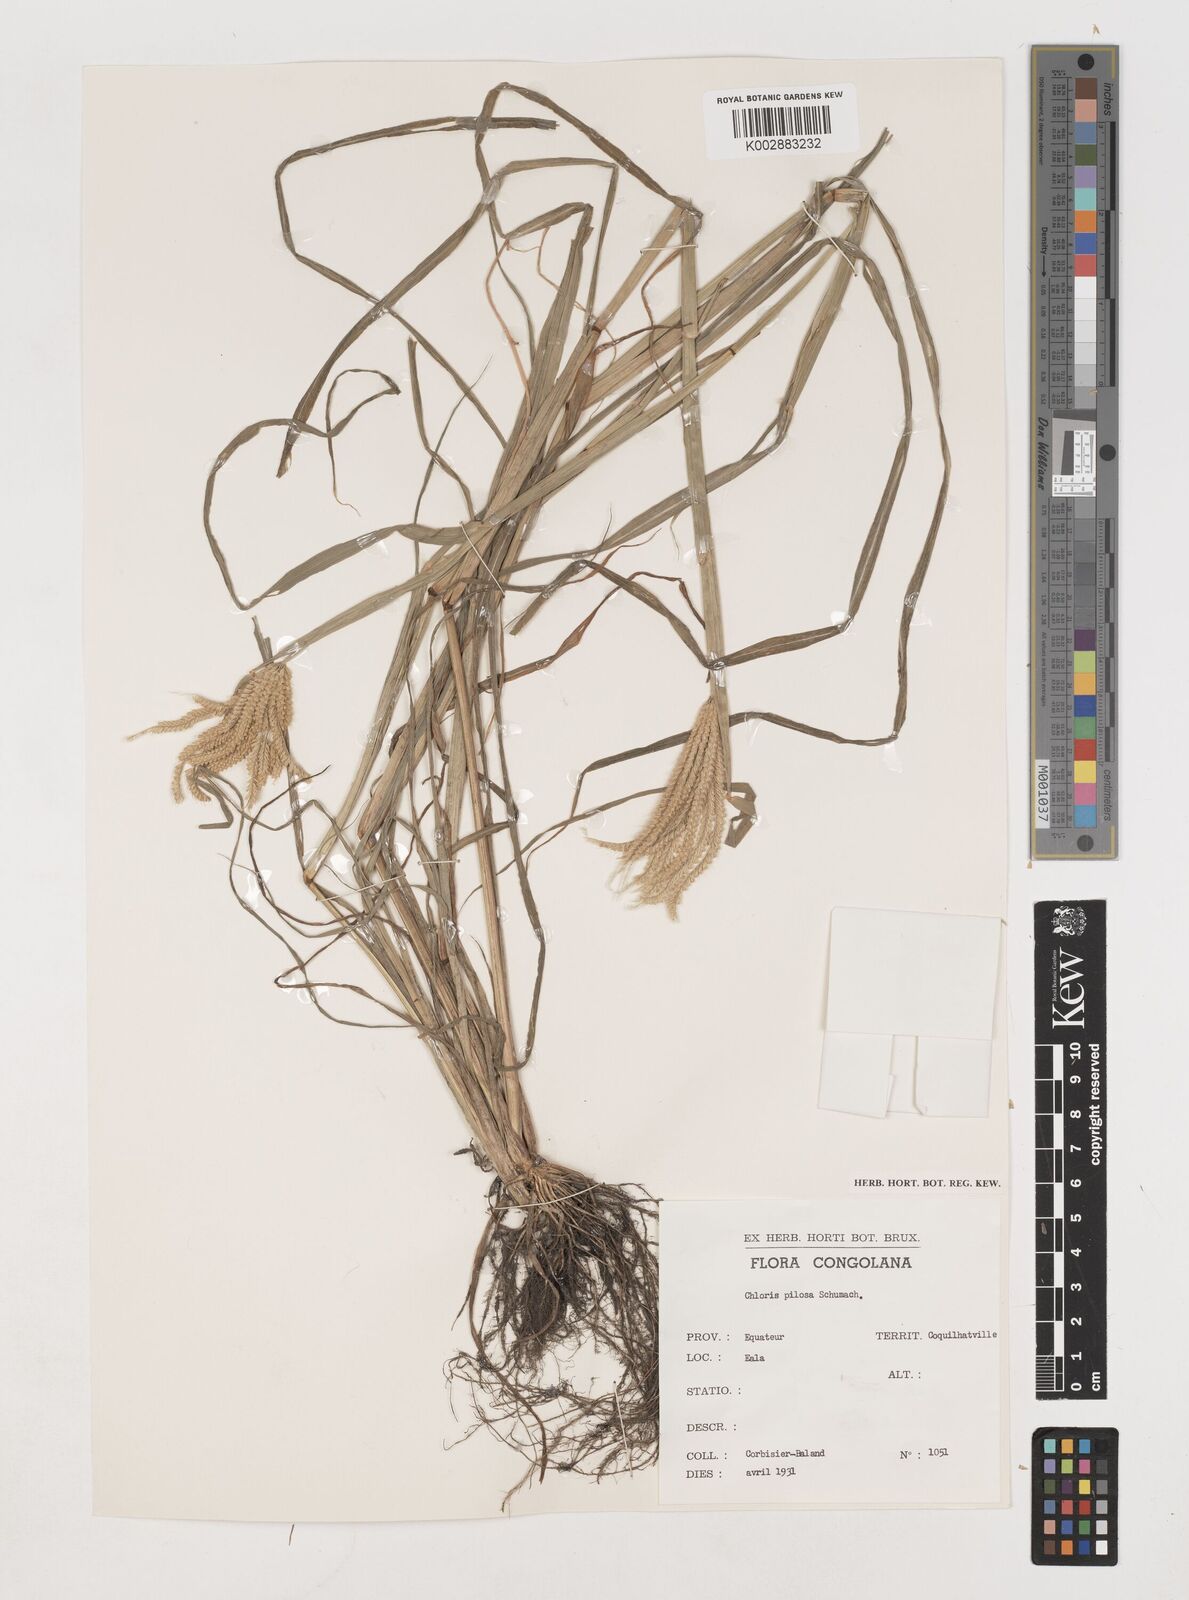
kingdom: Plantae
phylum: Tracheophyta
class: Liliopsida
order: Poales
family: Poaceae
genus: Chloris
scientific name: Chloris pilosa
